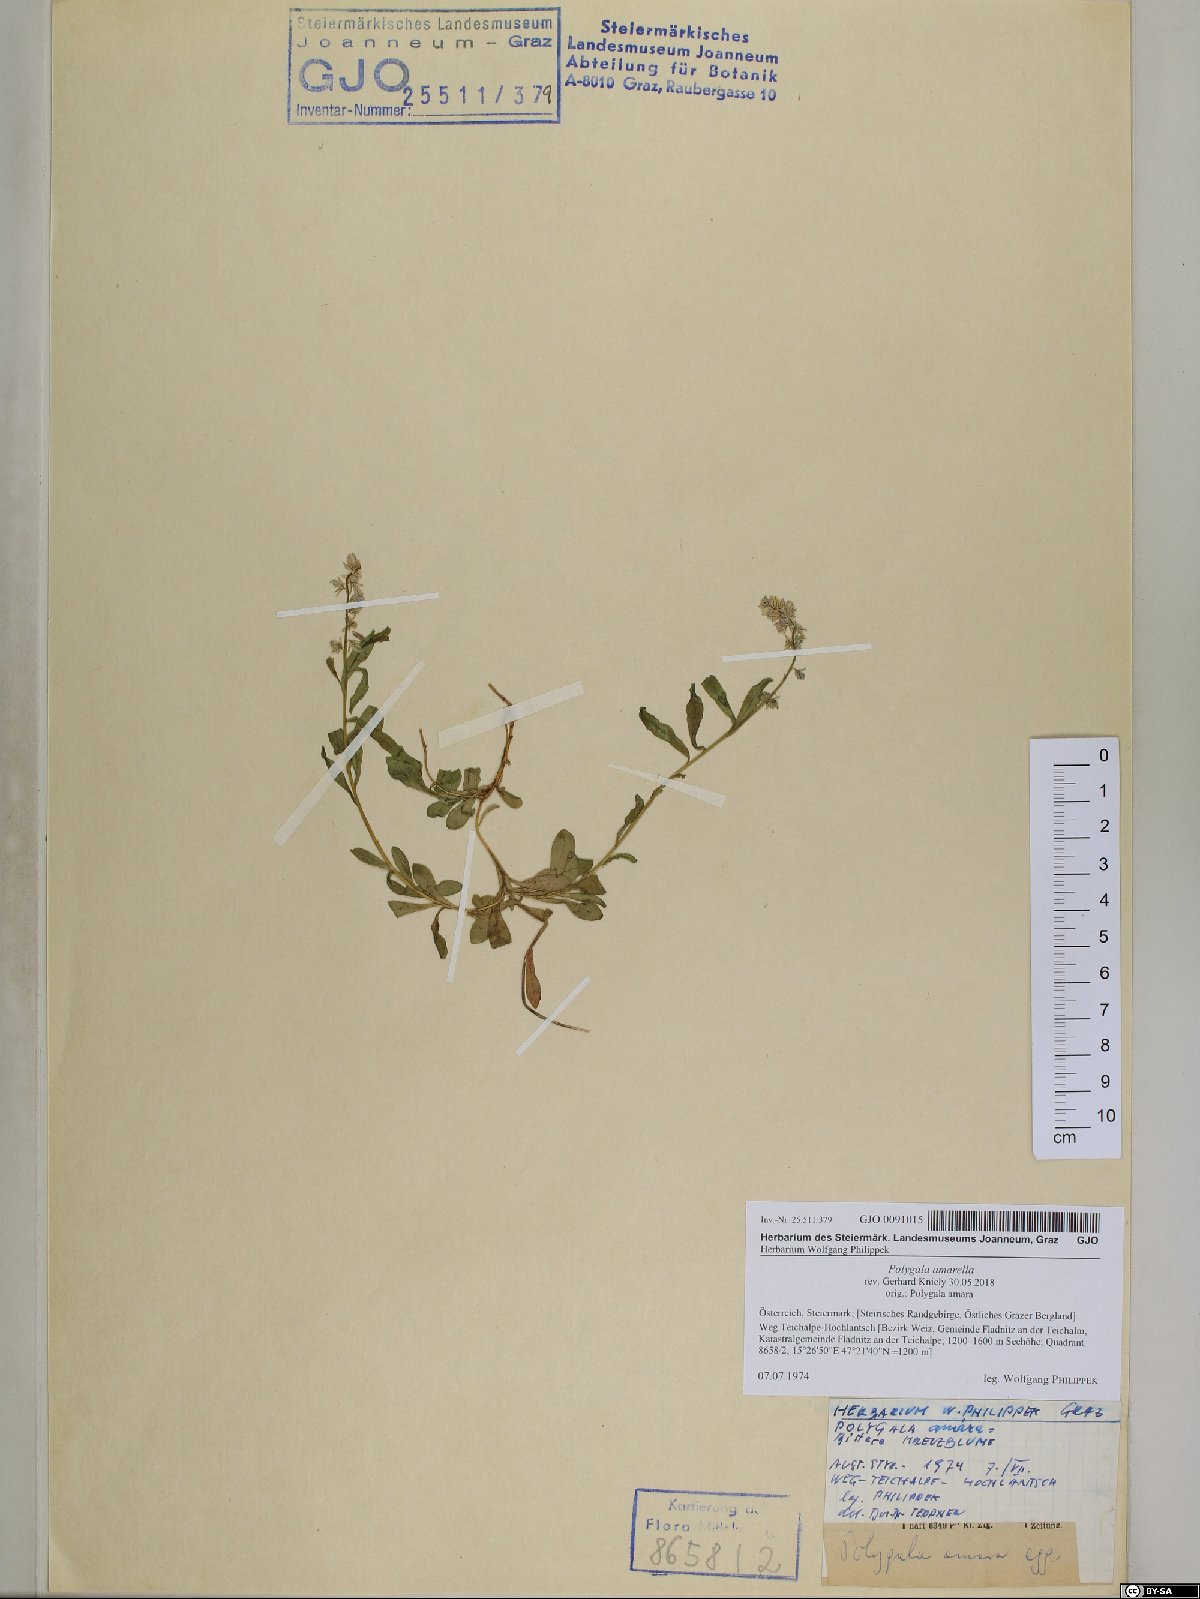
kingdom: Plantae
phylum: Tracheophyta
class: Magnoliopsida
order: Fabales
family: Polygalaceae
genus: Polygala
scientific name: Polygala amarella
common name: Dwarf milkwort
